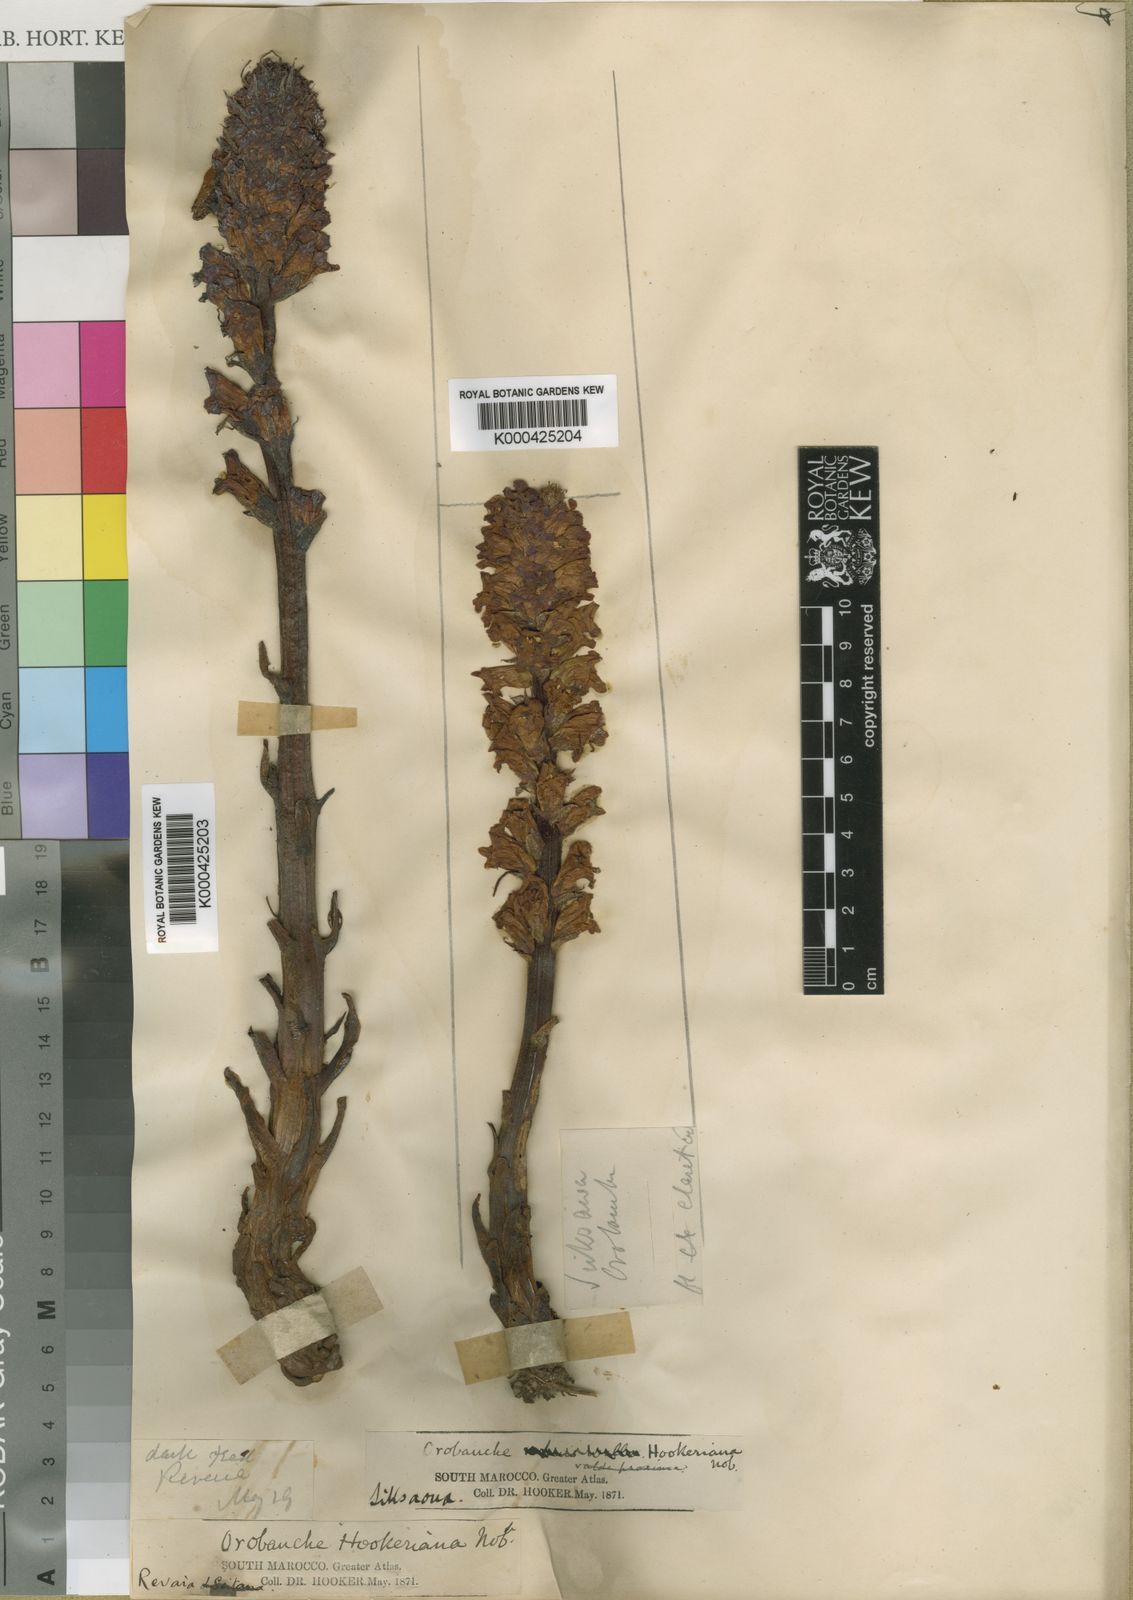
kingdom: Plantae
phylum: Tracheophyta
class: Magnoliopsida
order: Lamiales
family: Orobanchaceae
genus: Orobanche
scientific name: Orobanche foetida
